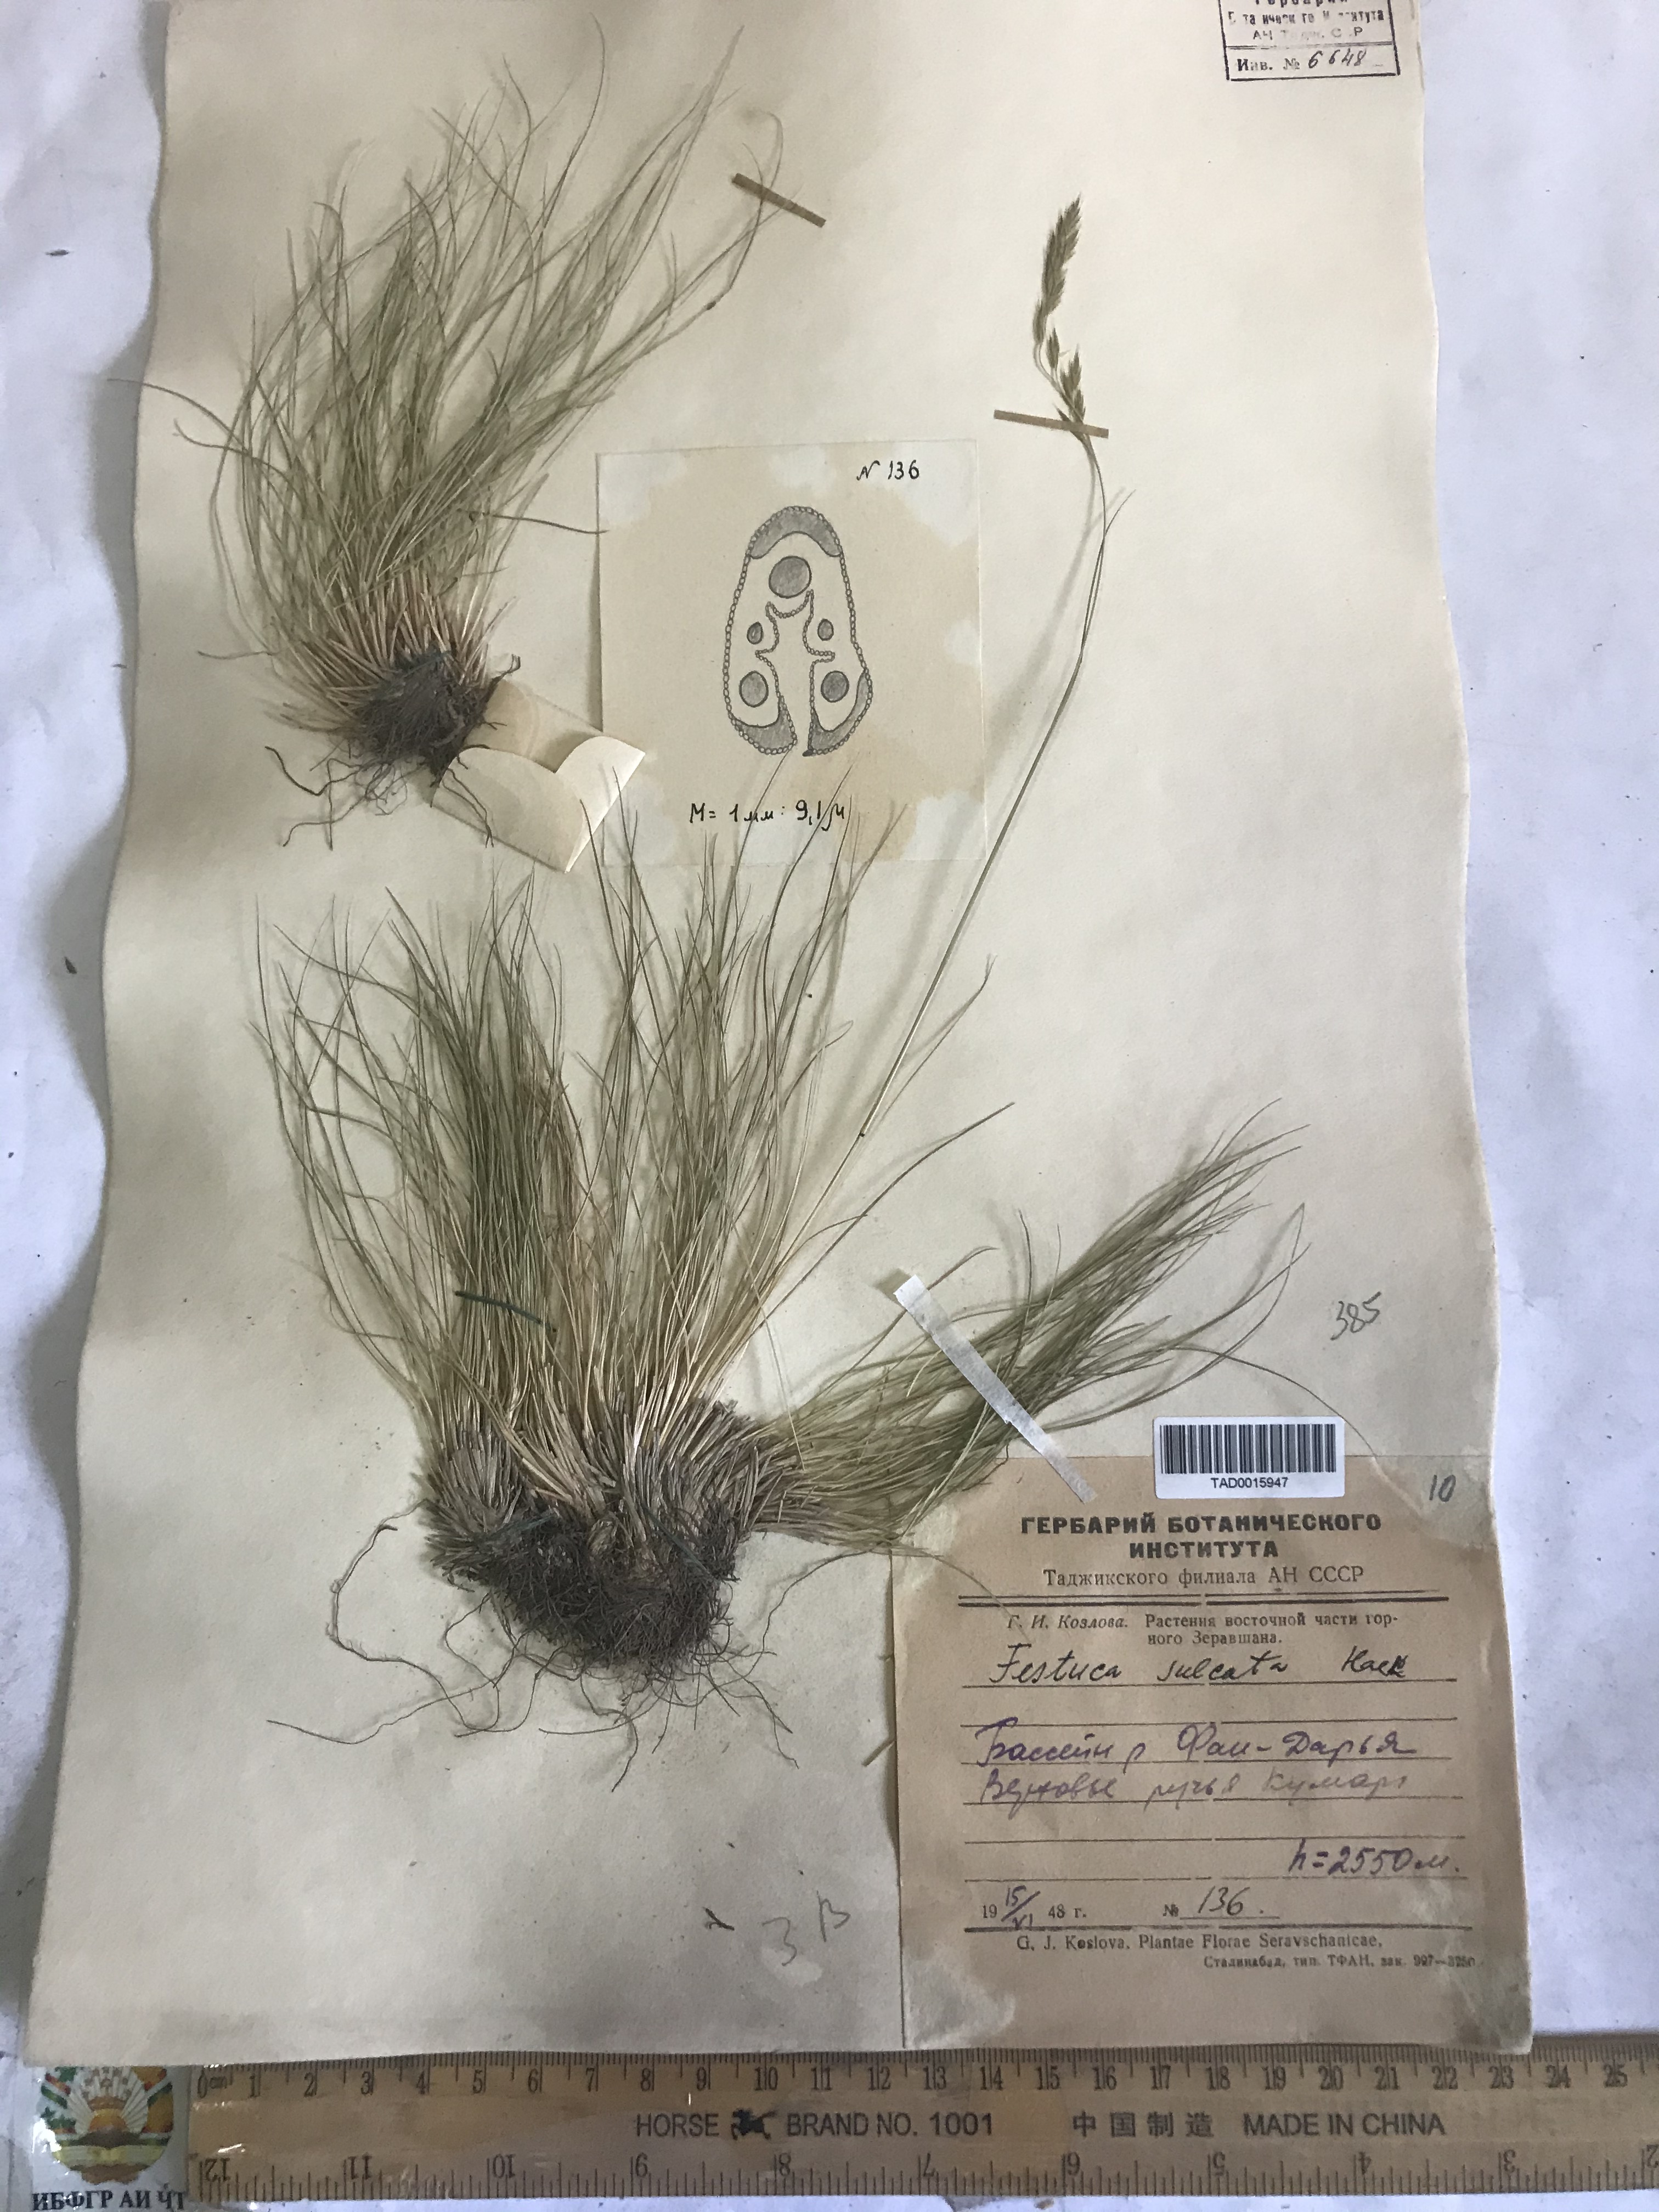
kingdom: Plantae
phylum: Tracheophyta
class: Liliopsida
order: Poales
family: Poaceae
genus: Festuca
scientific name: Festuca sulcata
